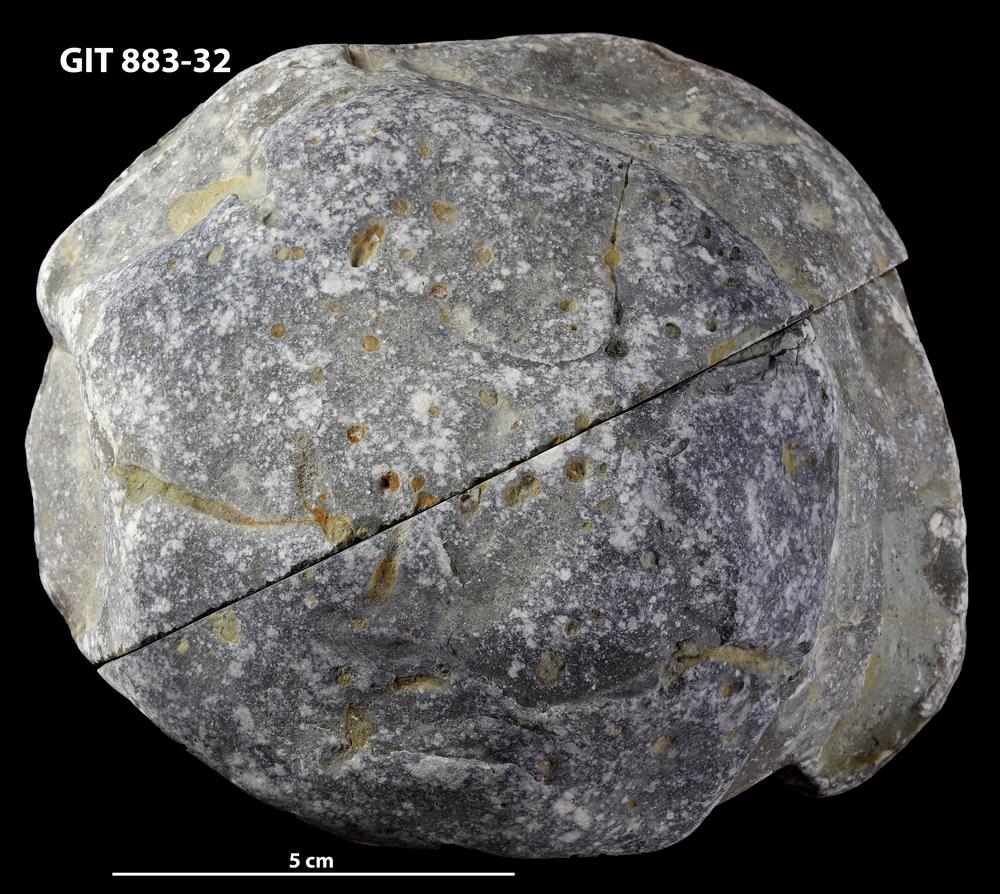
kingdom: Animalia
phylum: Porifera
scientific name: Porifera
